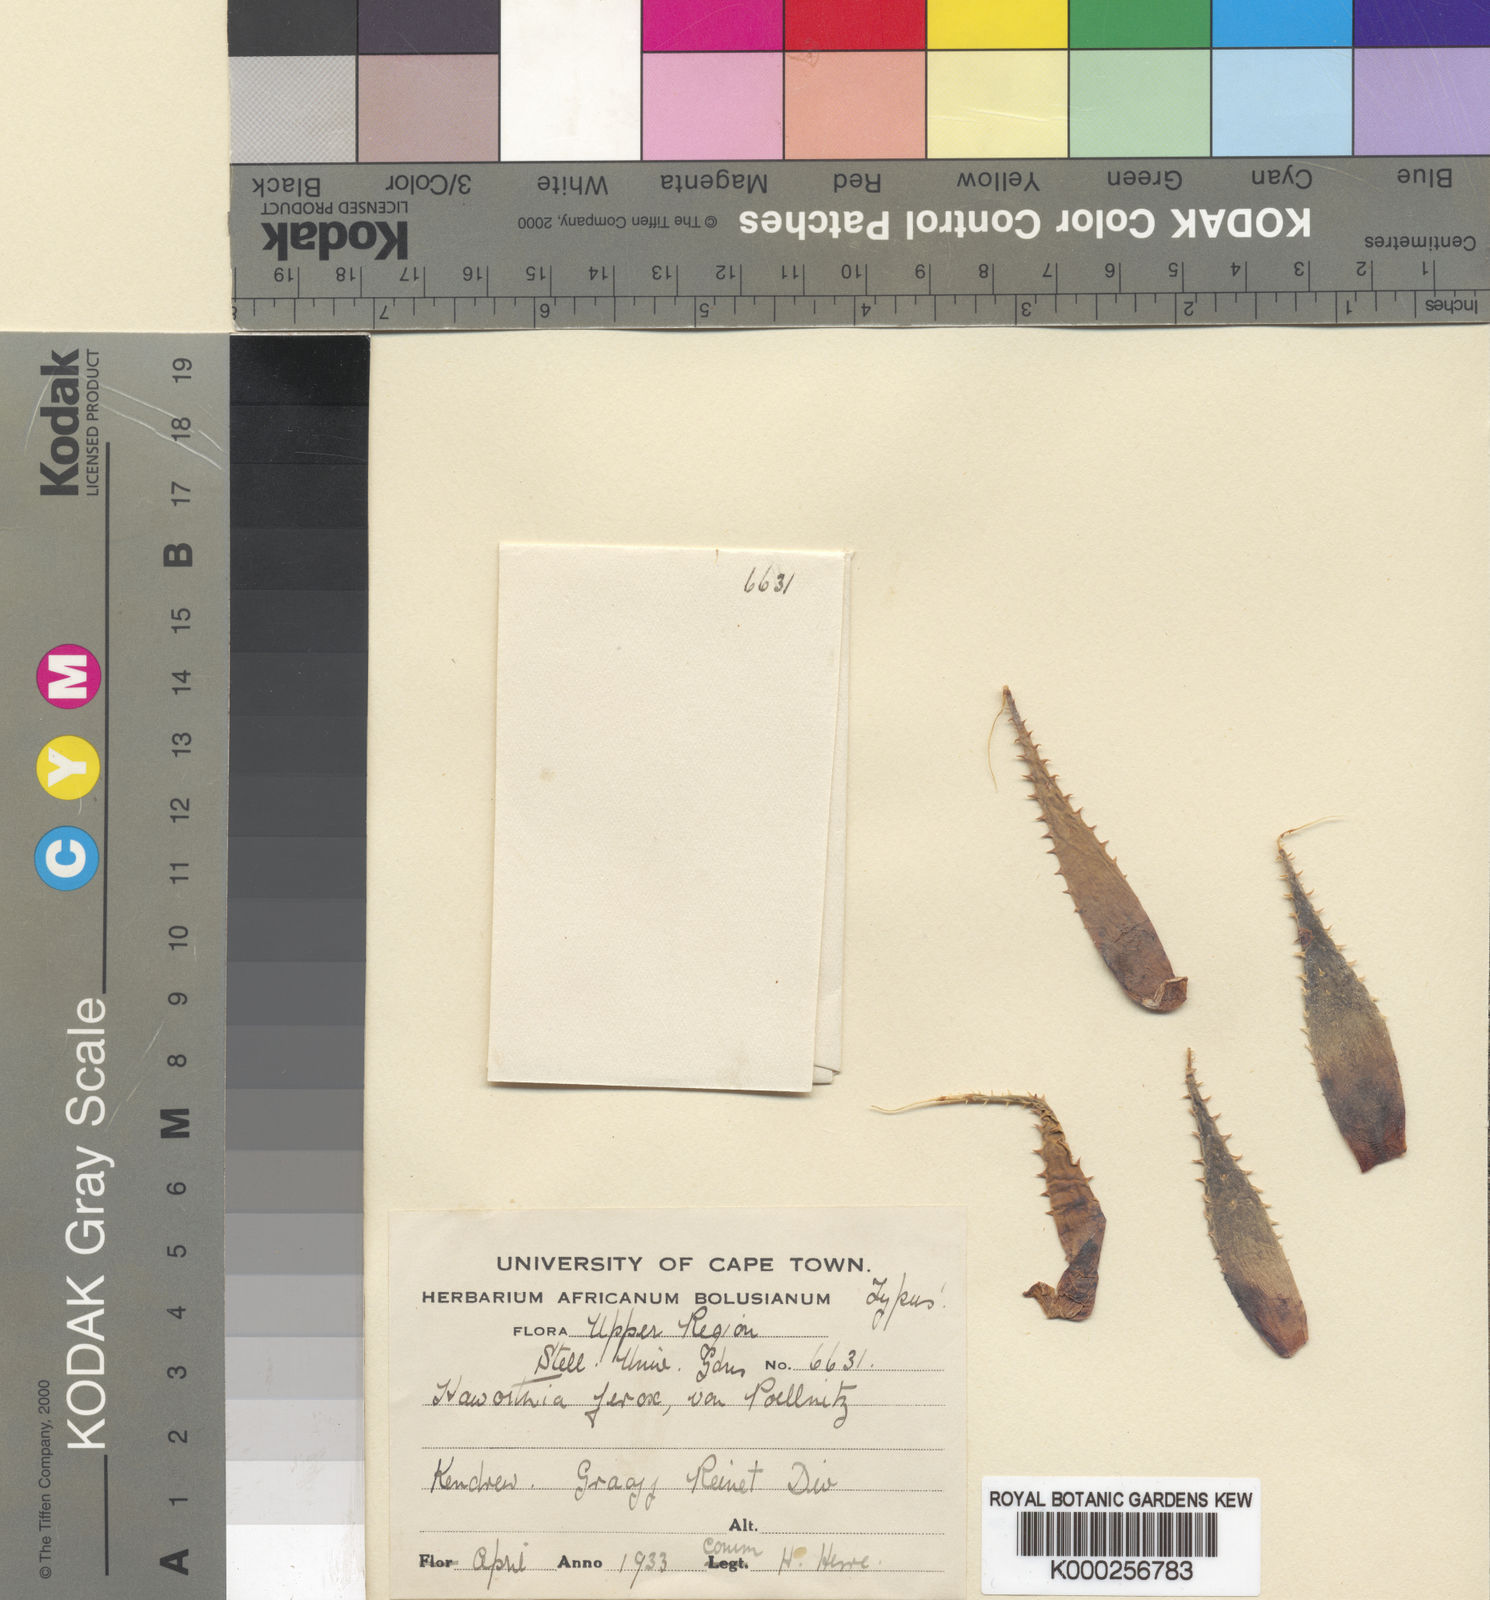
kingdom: Plantae
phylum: Tracheophyta
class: Liliopsida
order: Asparagales
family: Asphodelaceae
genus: Aloe
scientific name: Aloe humilis
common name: Dwarf hedgehog aloe
